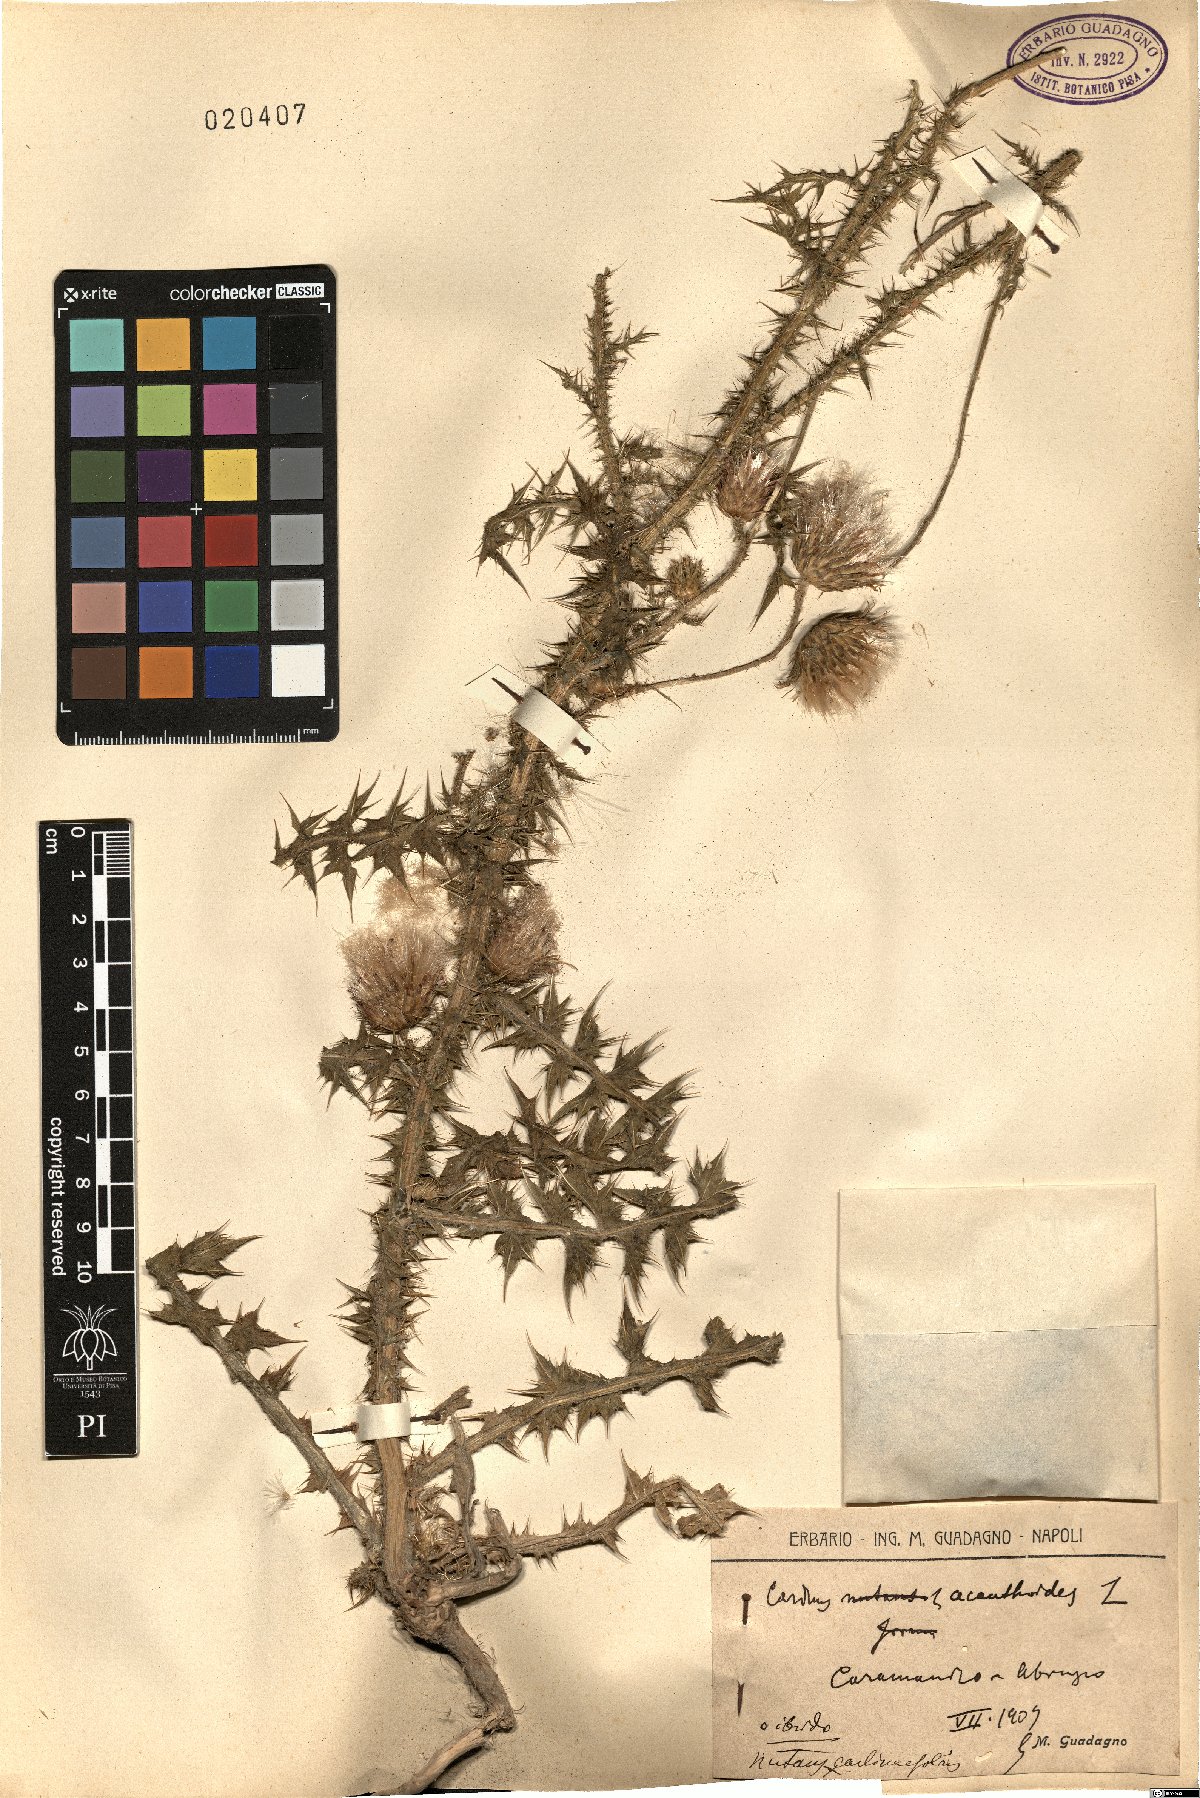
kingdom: Plantae
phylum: Tracheophyta
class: Magnoliopsida
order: Asterales
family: Asteraceae
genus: Carduus
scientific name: Carduus carlinifolius
